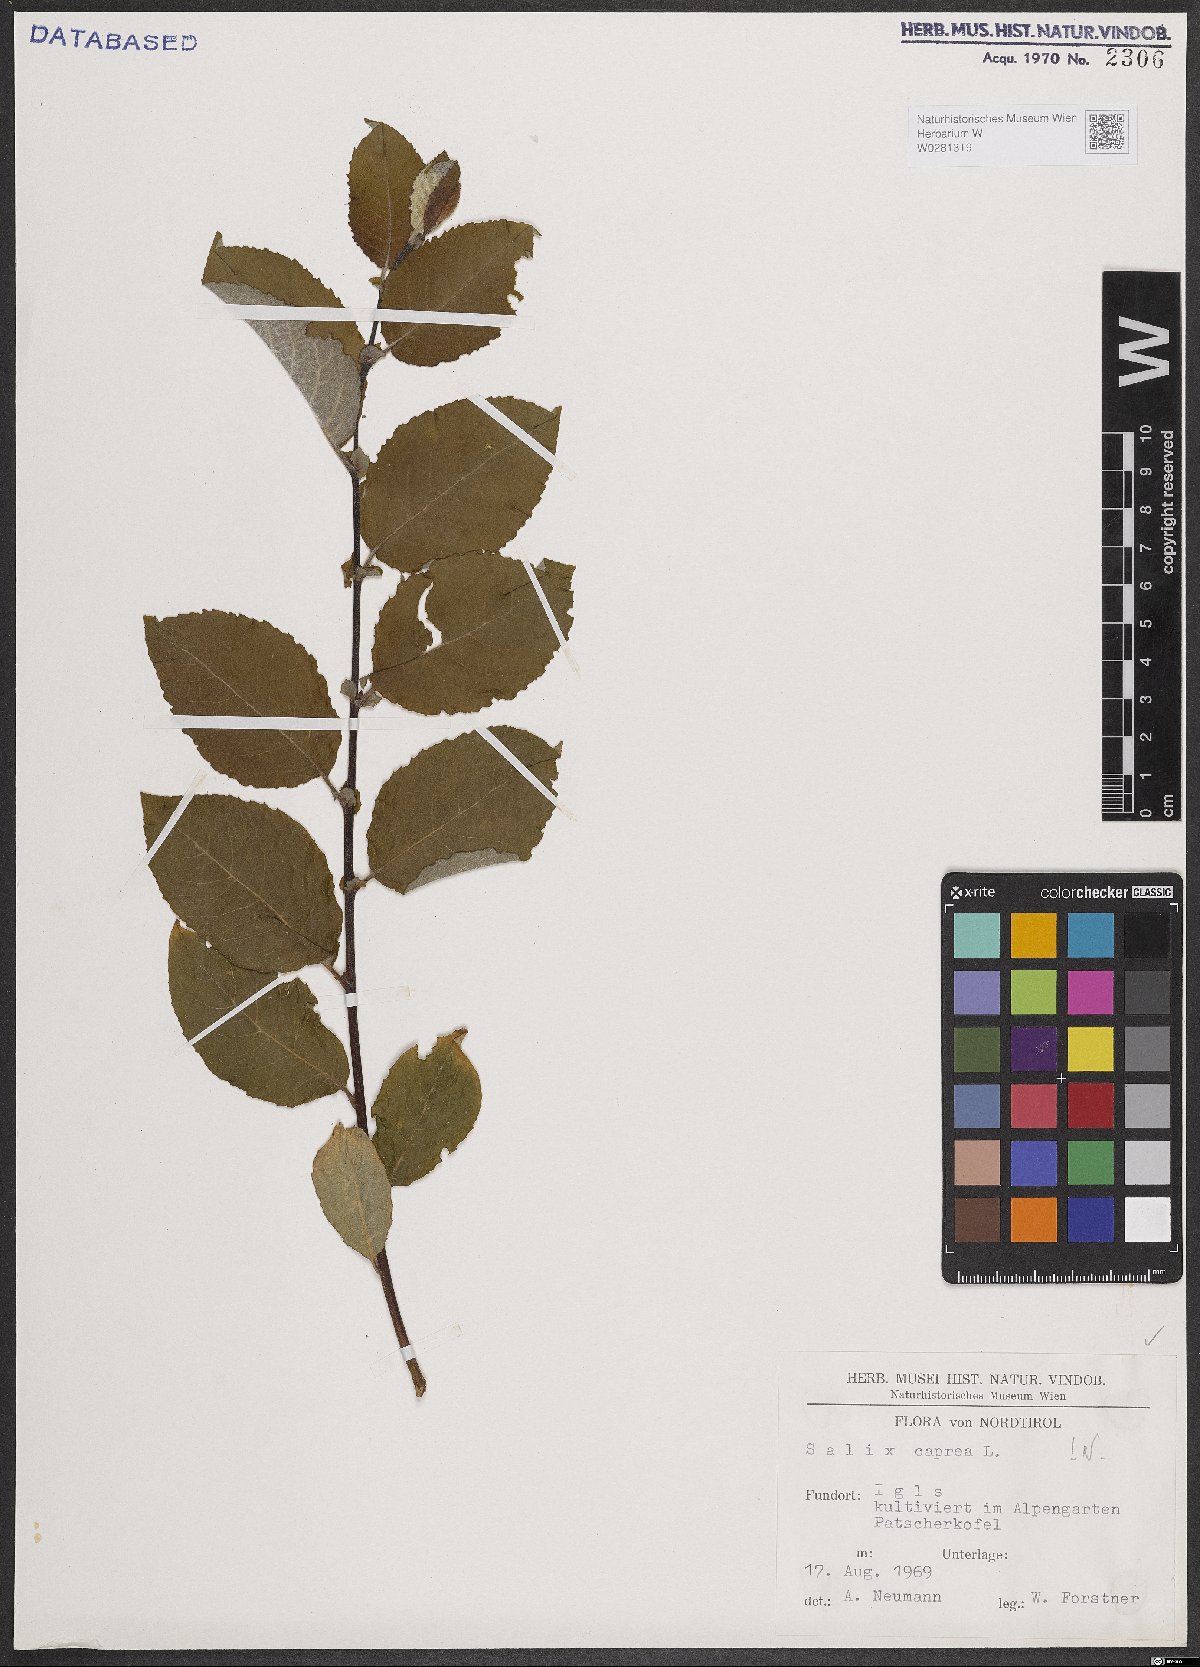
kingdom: Plantae
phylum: Tracheophyta
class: Magnoliopsida
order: Malpighiales
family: Salicaceae
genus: Salix
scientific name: Salix caprea
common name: Goat willow
